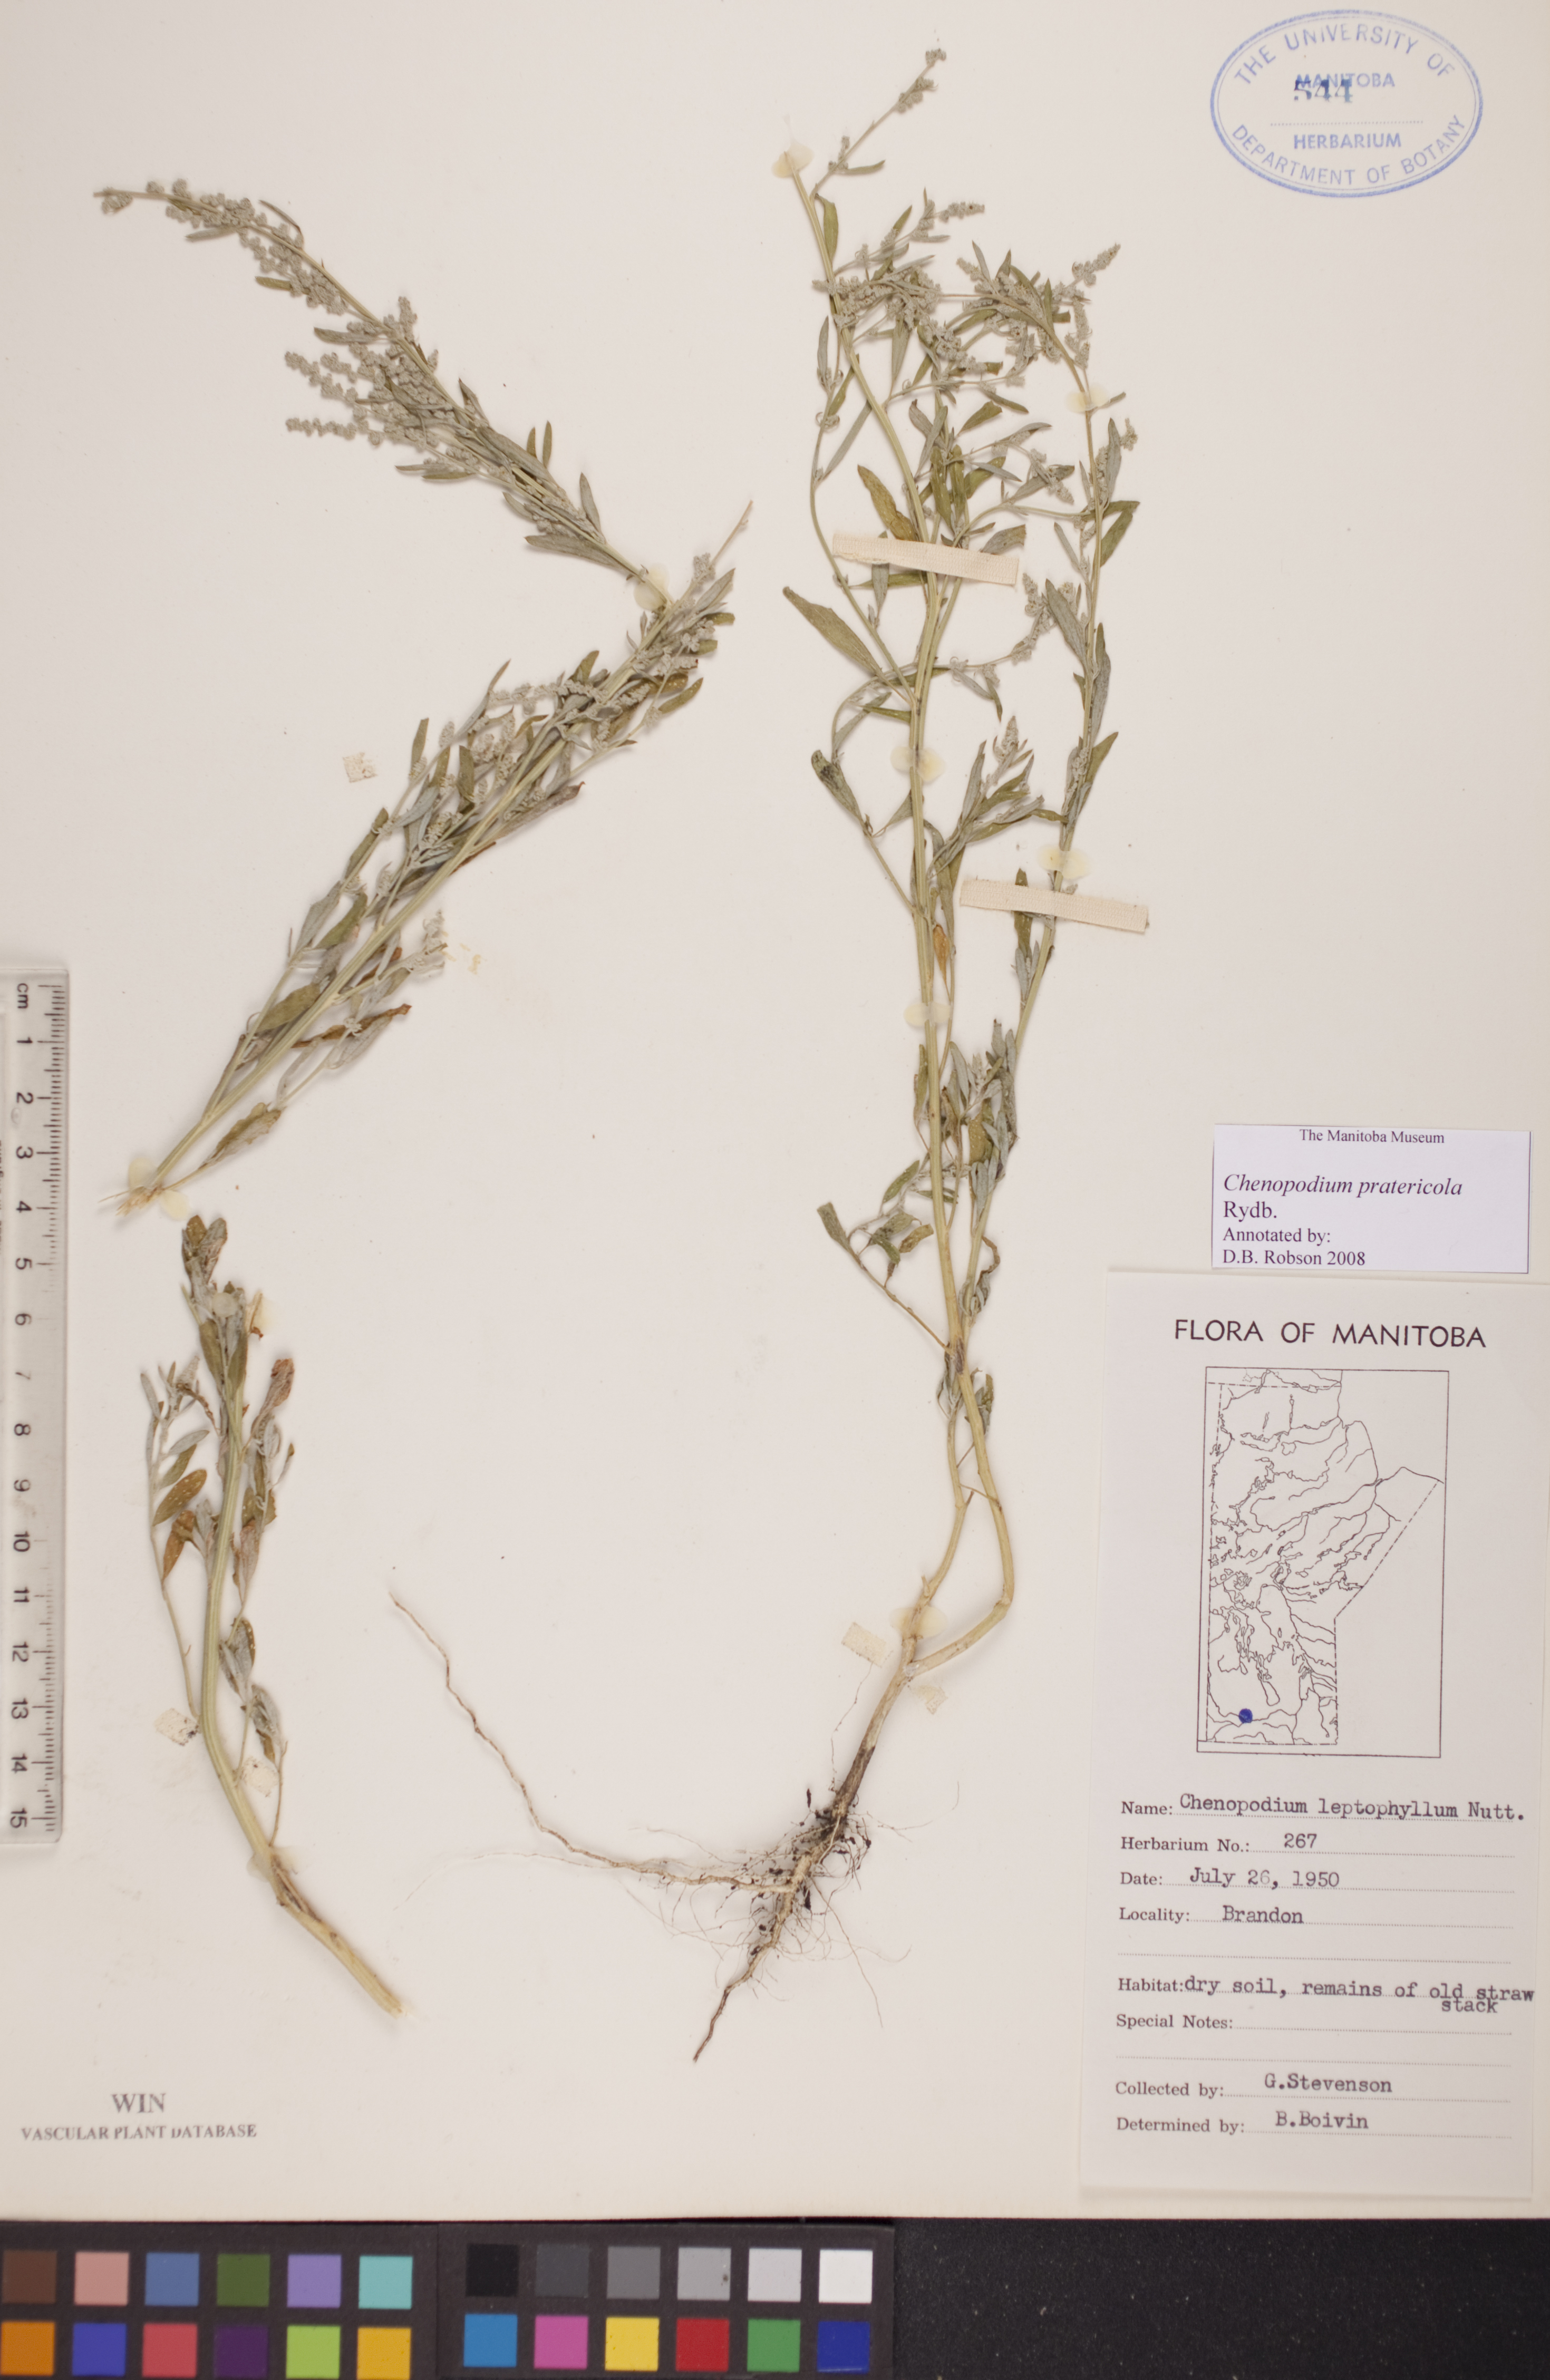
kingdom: Plantae
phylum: Tracheophyta
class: Magnoliopsida
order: Caryophyllales
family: Amaranthaceae
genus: Chenopodium
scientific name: Chenopodium pratericola
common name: Desert goosefoot
